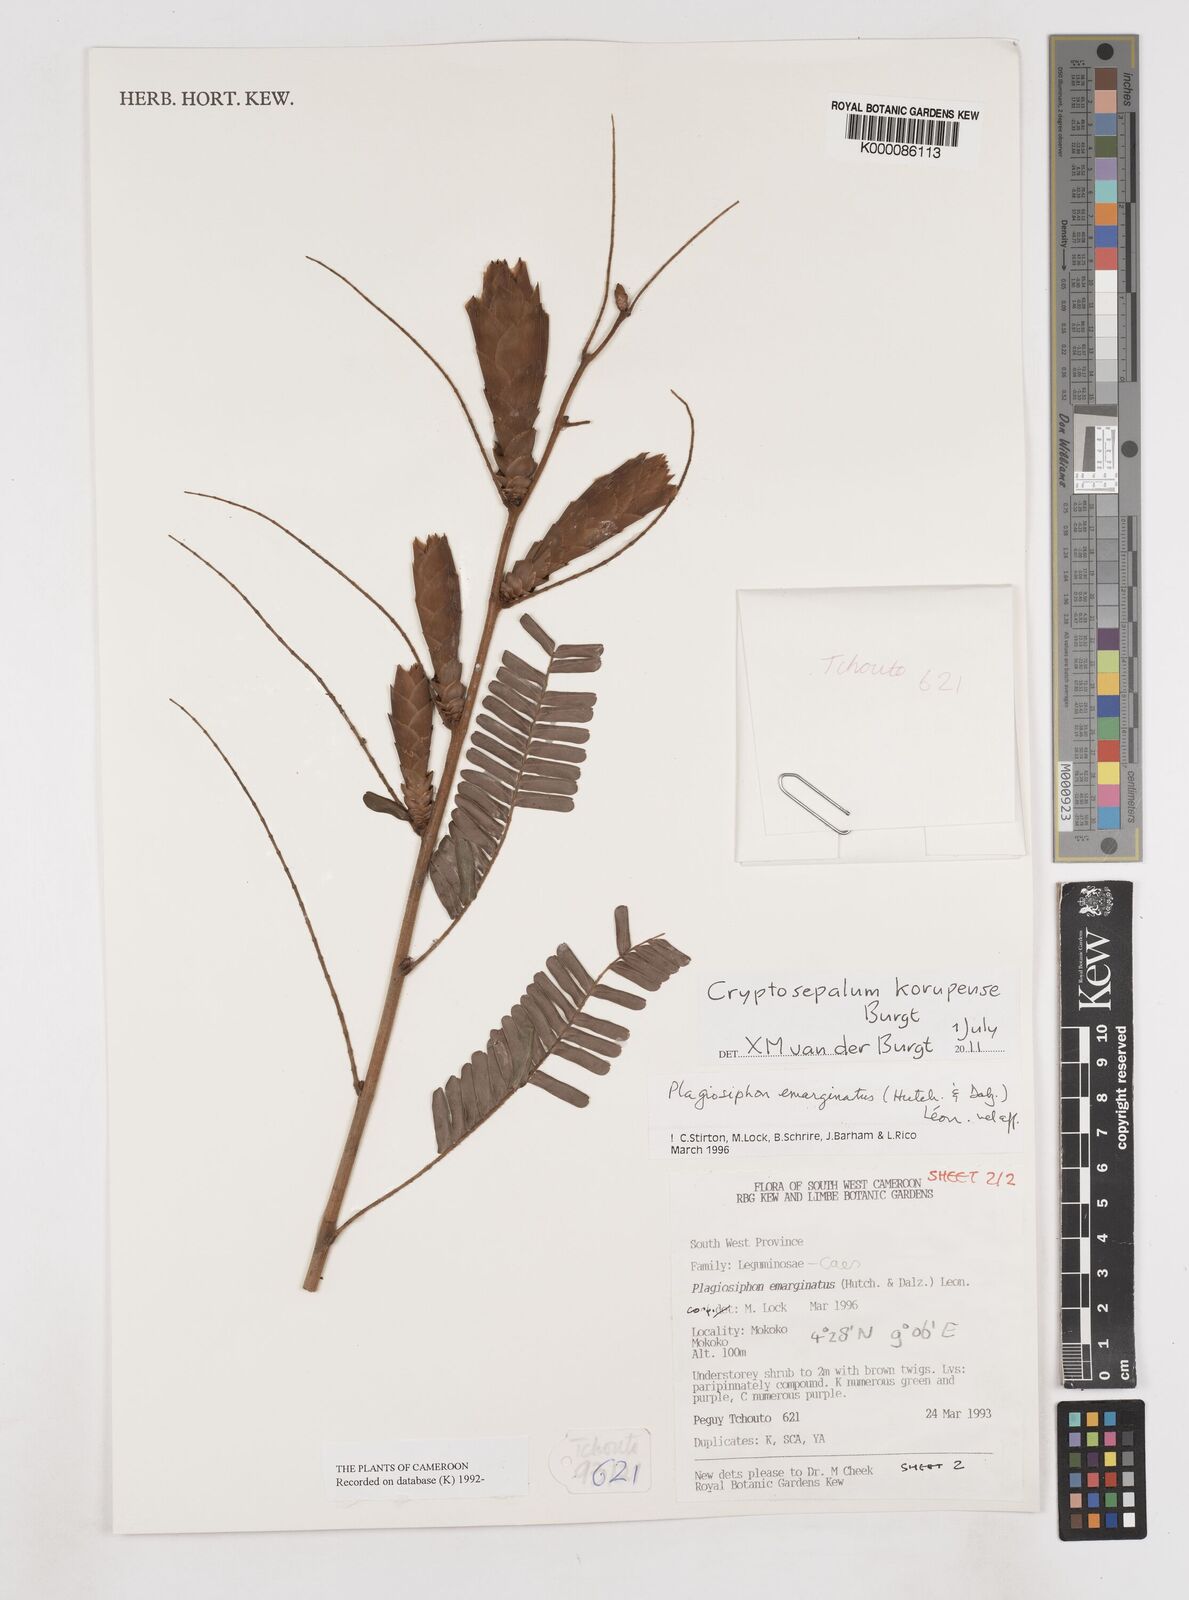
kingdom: Plantae
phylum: Tracheophyta
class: Magnoliopsida
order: Fabales
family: Fabaceae
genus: Cryptosepalum
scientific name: Cryptosepalum korupense
